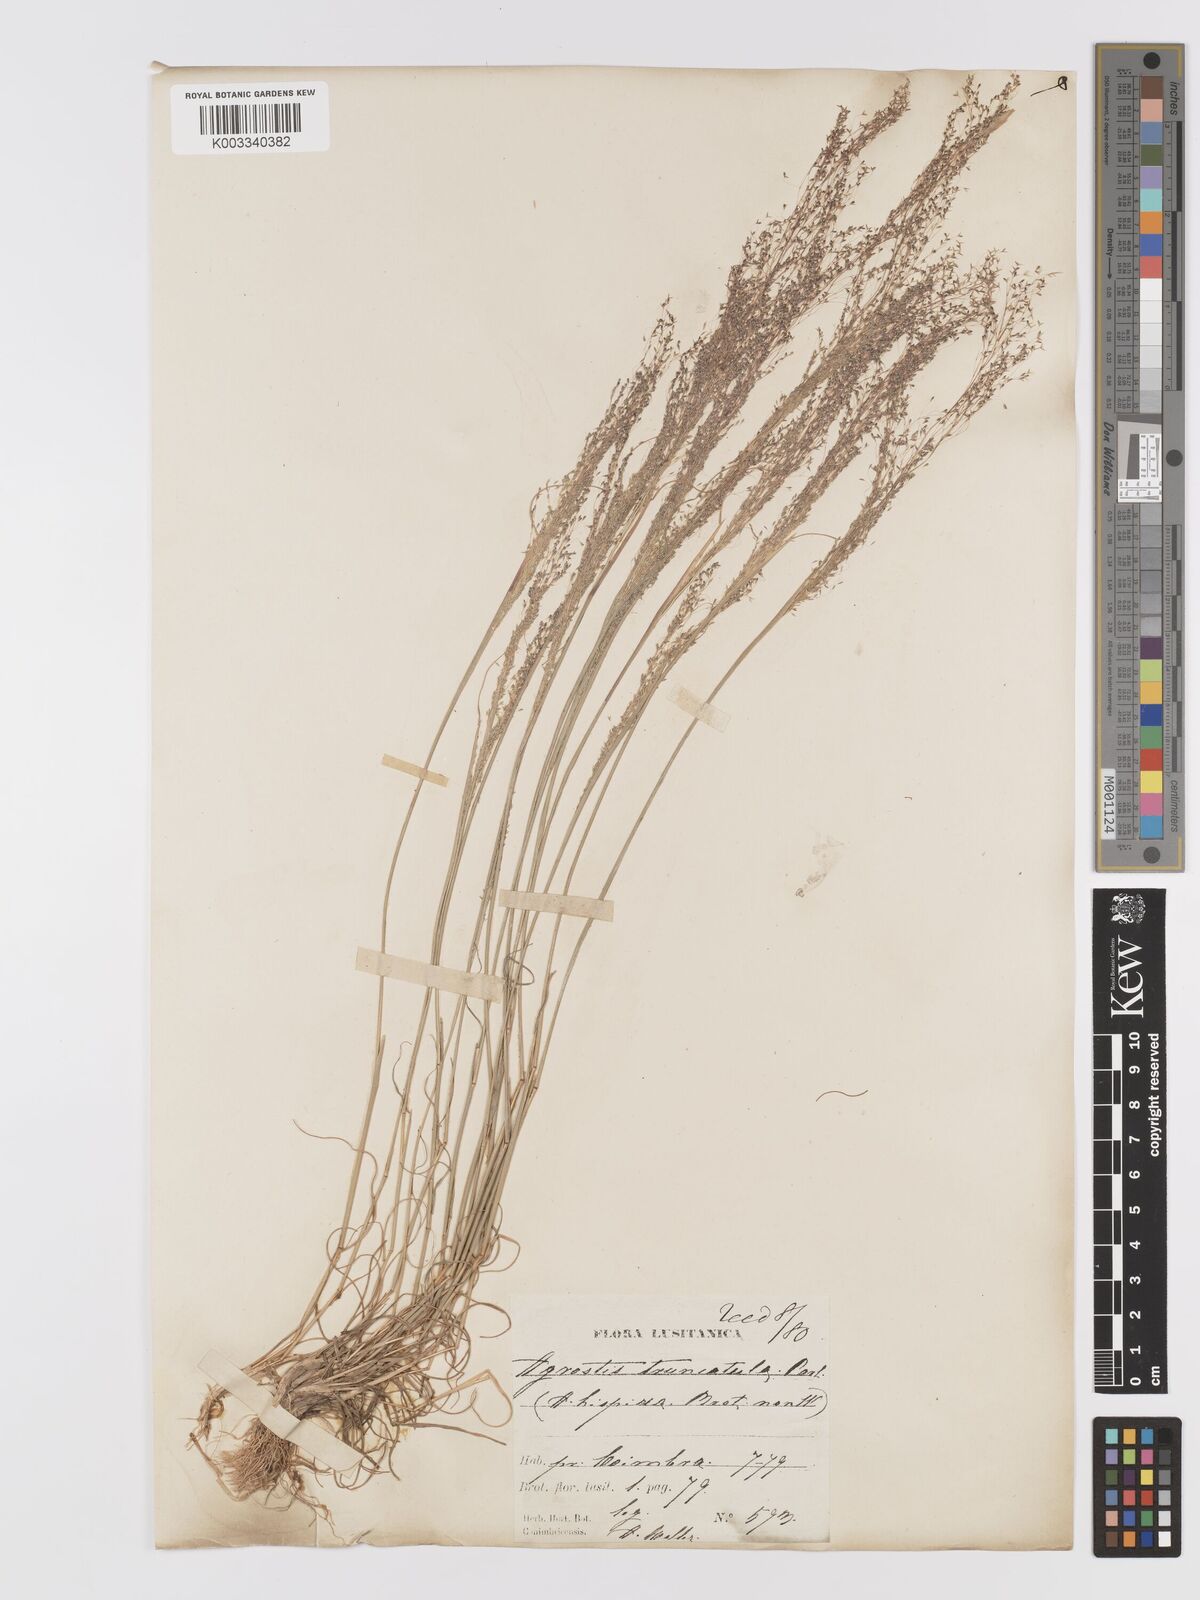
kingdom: Plantae
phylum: Tracheophyta
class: Liliopsida
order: Poales
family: Poaceae
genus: Agrostis
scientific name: Agrostis castellana
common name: Highland bent
